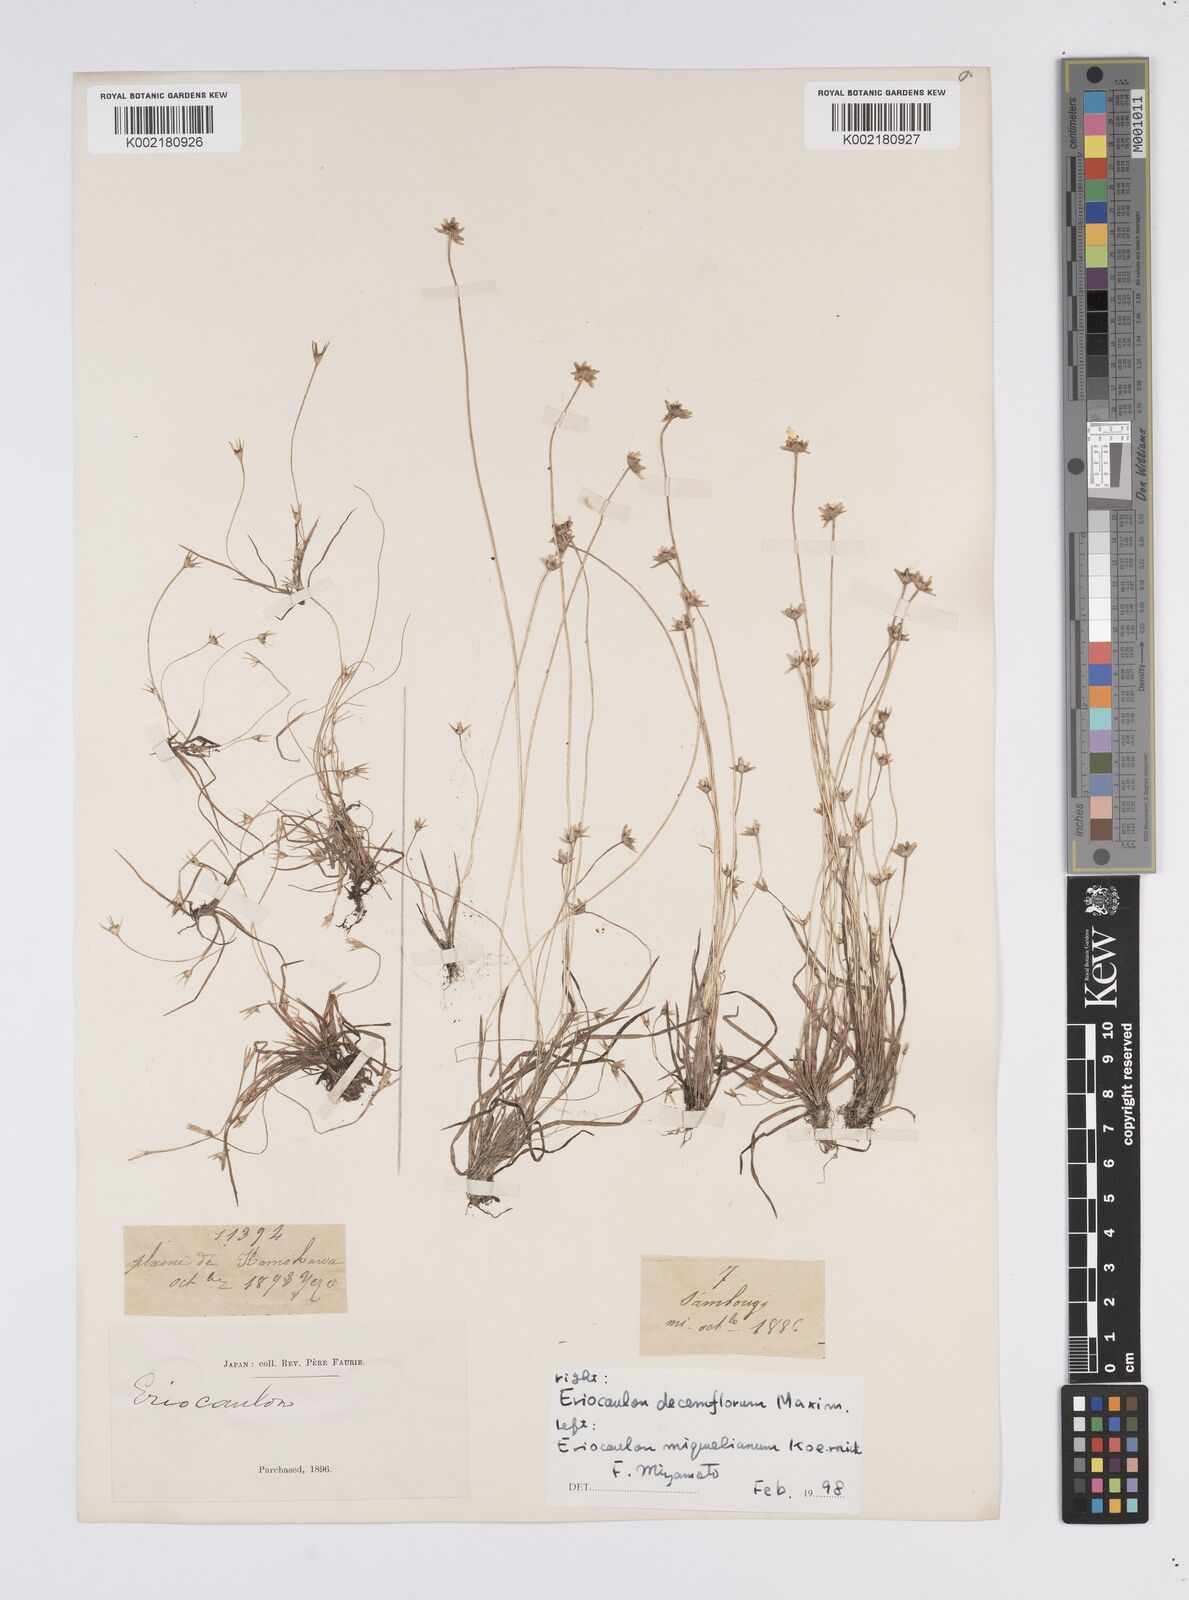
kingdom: Plantae
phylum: Tracheophyta
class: Liliopsida
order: Poales
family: Eriocaulaceae
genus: Eriocaulon
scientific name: Eriocaulon decemflorum
